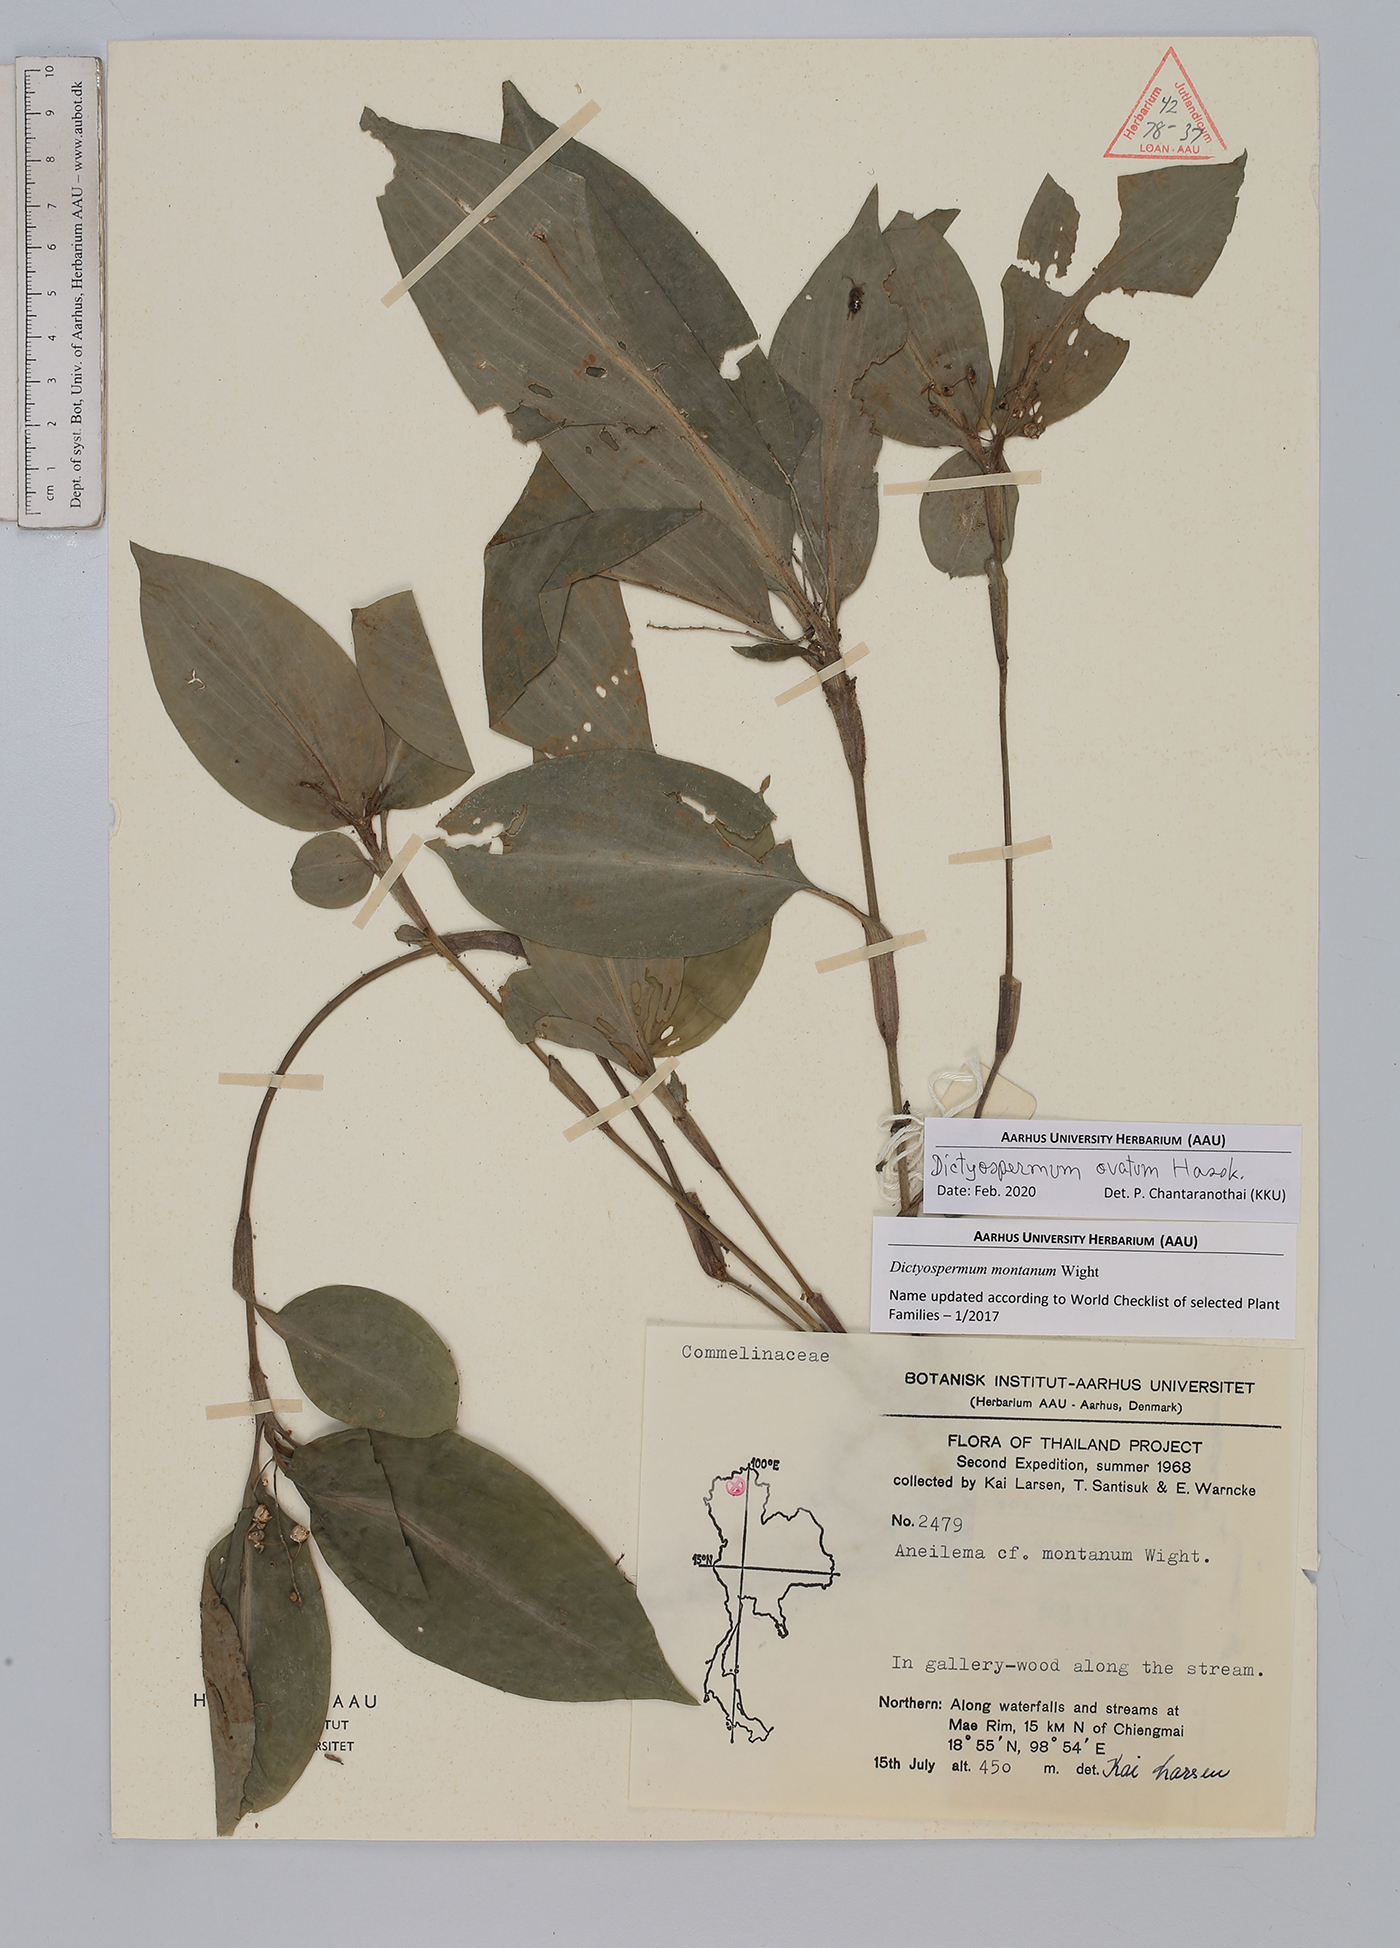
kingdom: Plantae
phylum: Tracheophyta
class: Liliopsida
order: Commelinales
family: Commelinaceae
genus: Dictyospermum
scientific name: Dictyospermum ovatum
